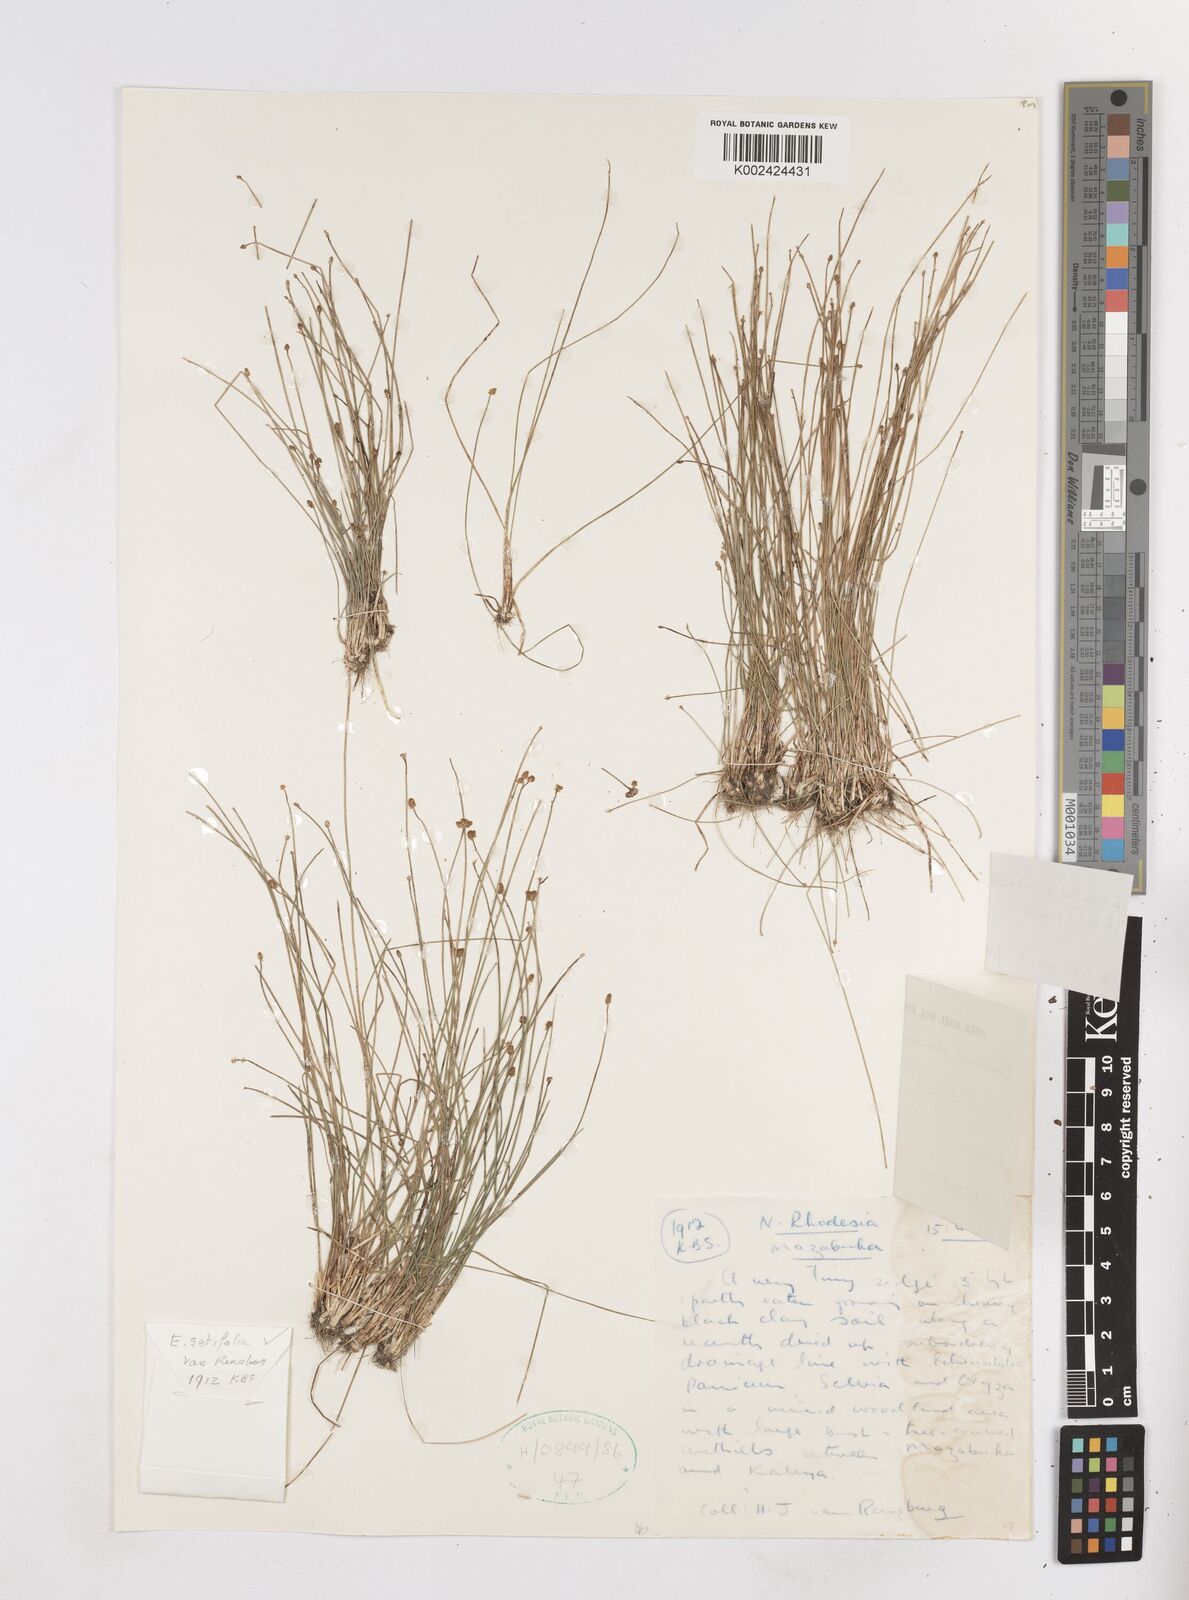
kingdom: Plantae
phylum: Tracheophyta
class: Liliopsida
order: Poales
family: Cyperaceae
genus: Eleocharis
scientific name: Eleocharis setifolia
